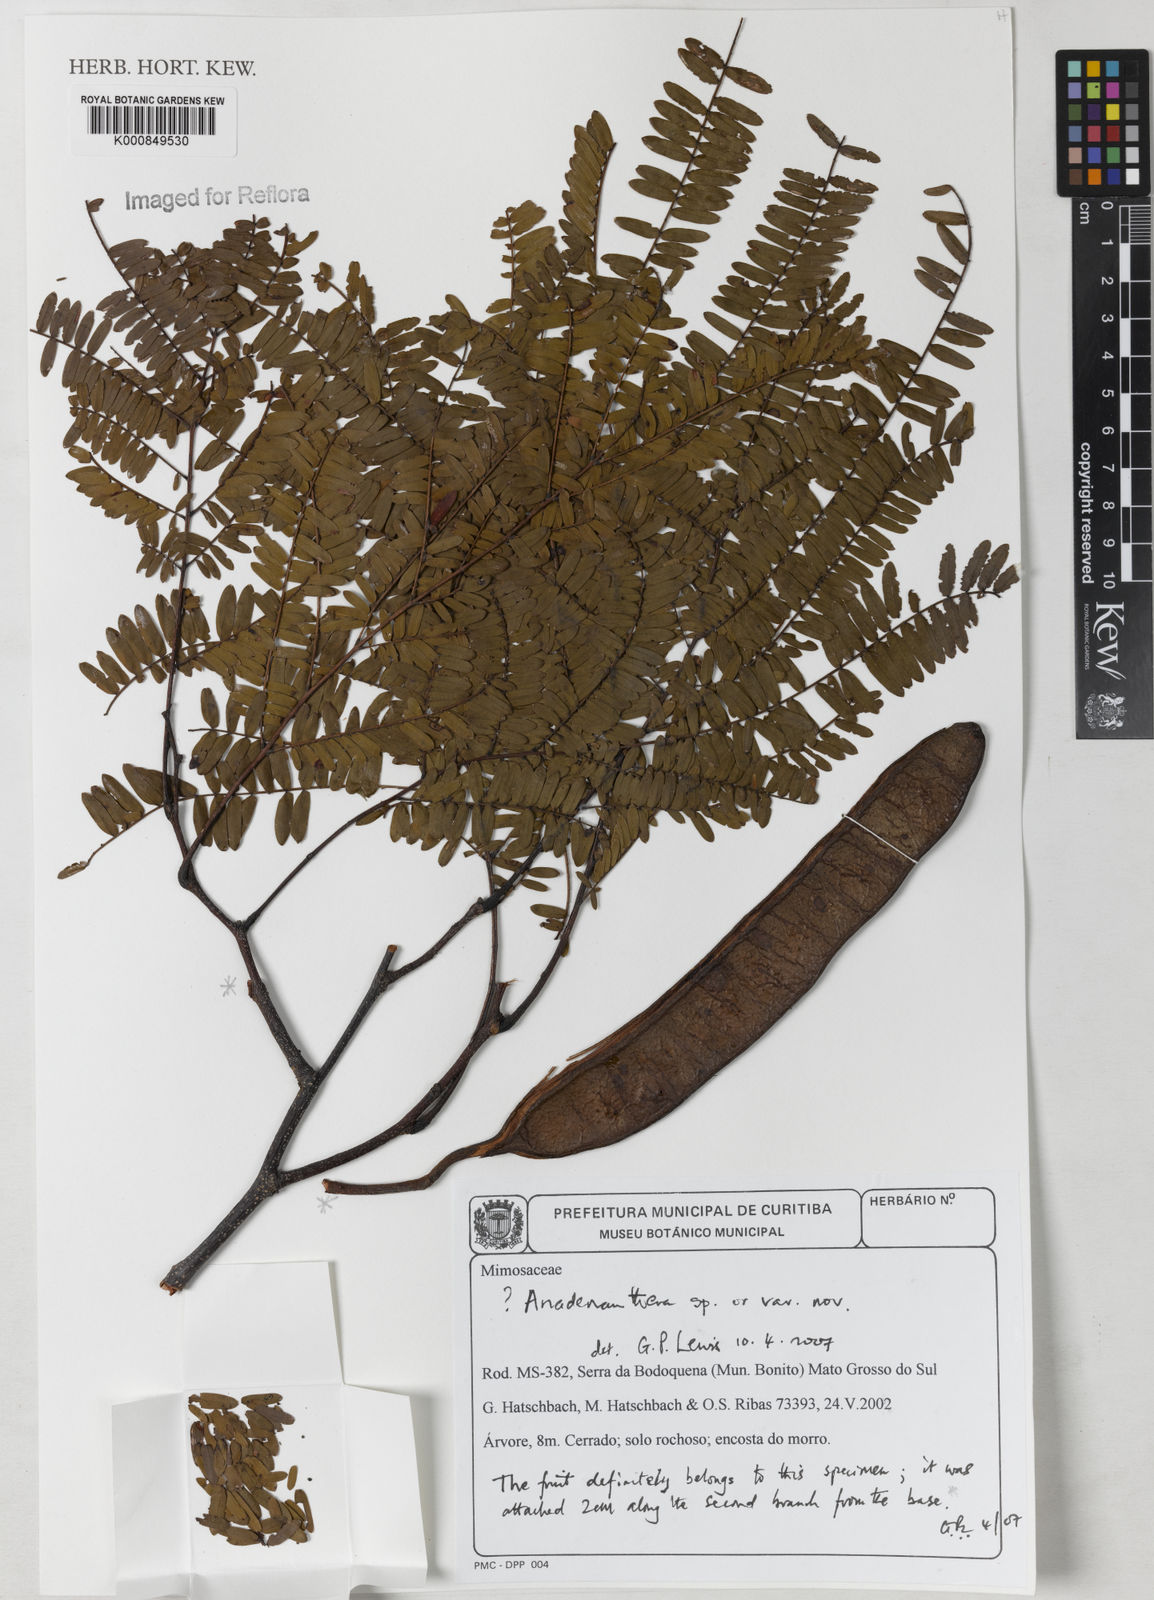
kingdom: Plantae
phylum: Tracheophyta
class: Magnoliopsida
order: Fabales
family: Fabaceae
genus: Anadenanthera
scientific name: Anadenanthera colubrina
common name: Curupay
